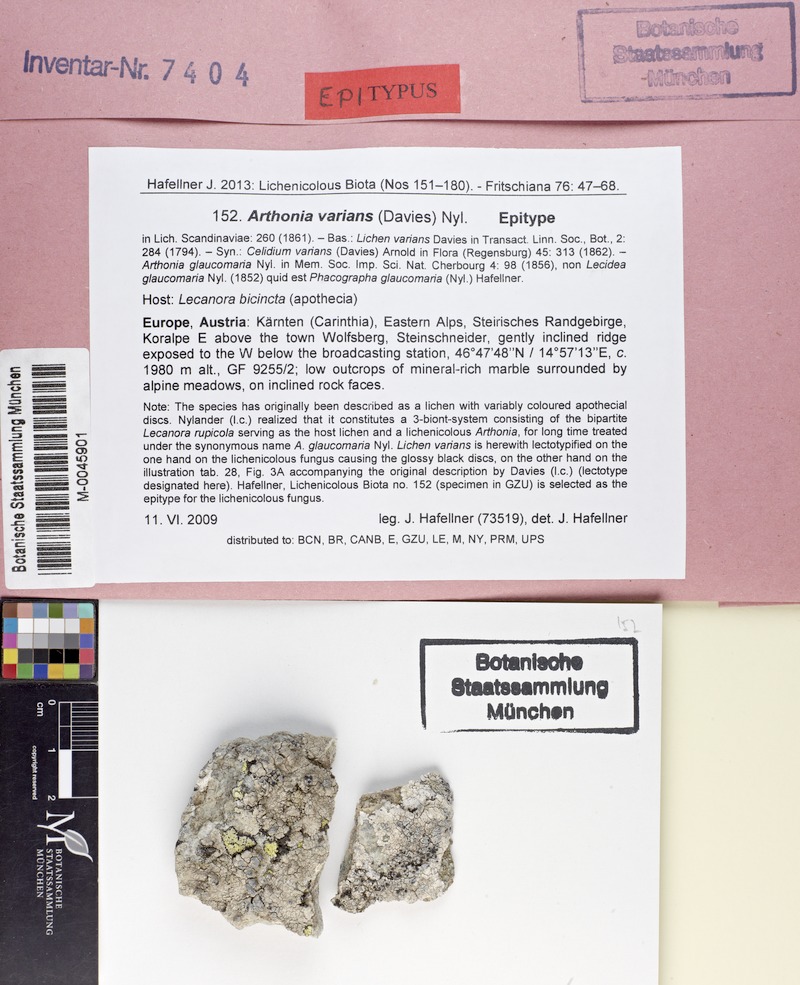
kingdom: Fungi
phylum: Ascomycota
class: Arthoniomycetes
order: Arthoniales
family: Arthoniaceae
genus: Arthonia
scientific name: Arthonia varians
